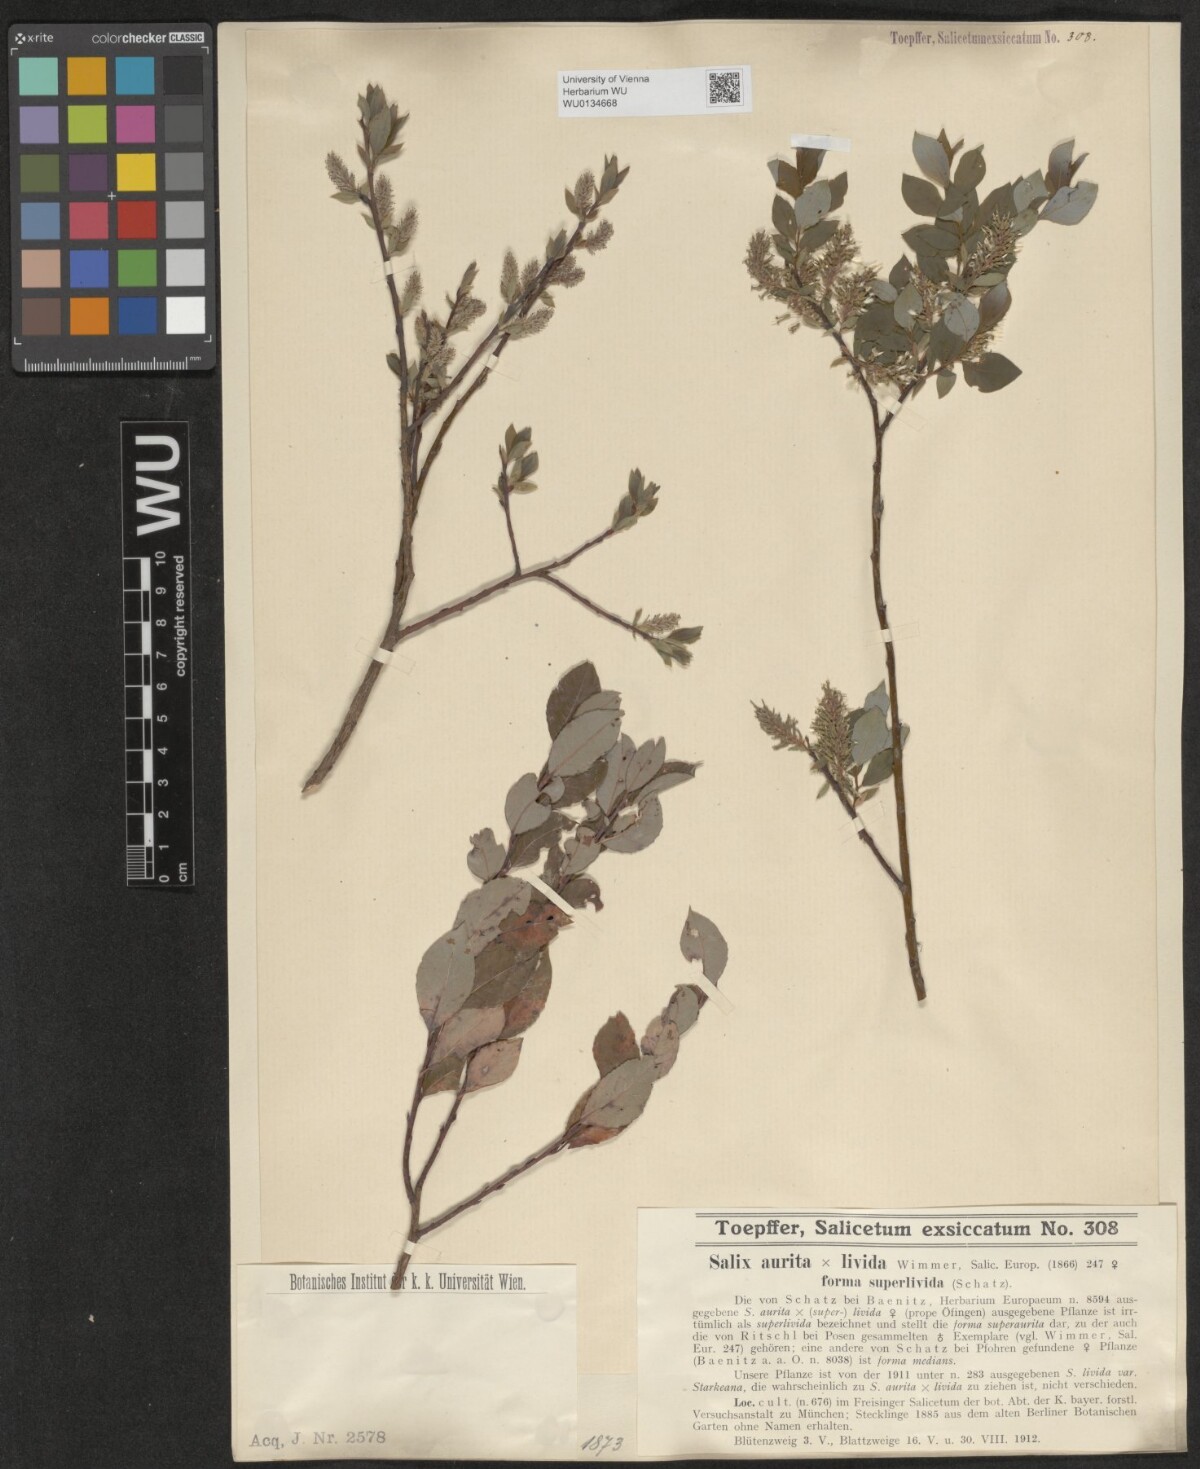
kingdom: Plantae
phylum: Tracheophyta
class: Magnoliopsida
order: Malpighiales
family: Salicaceae
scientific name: Salicaceae
